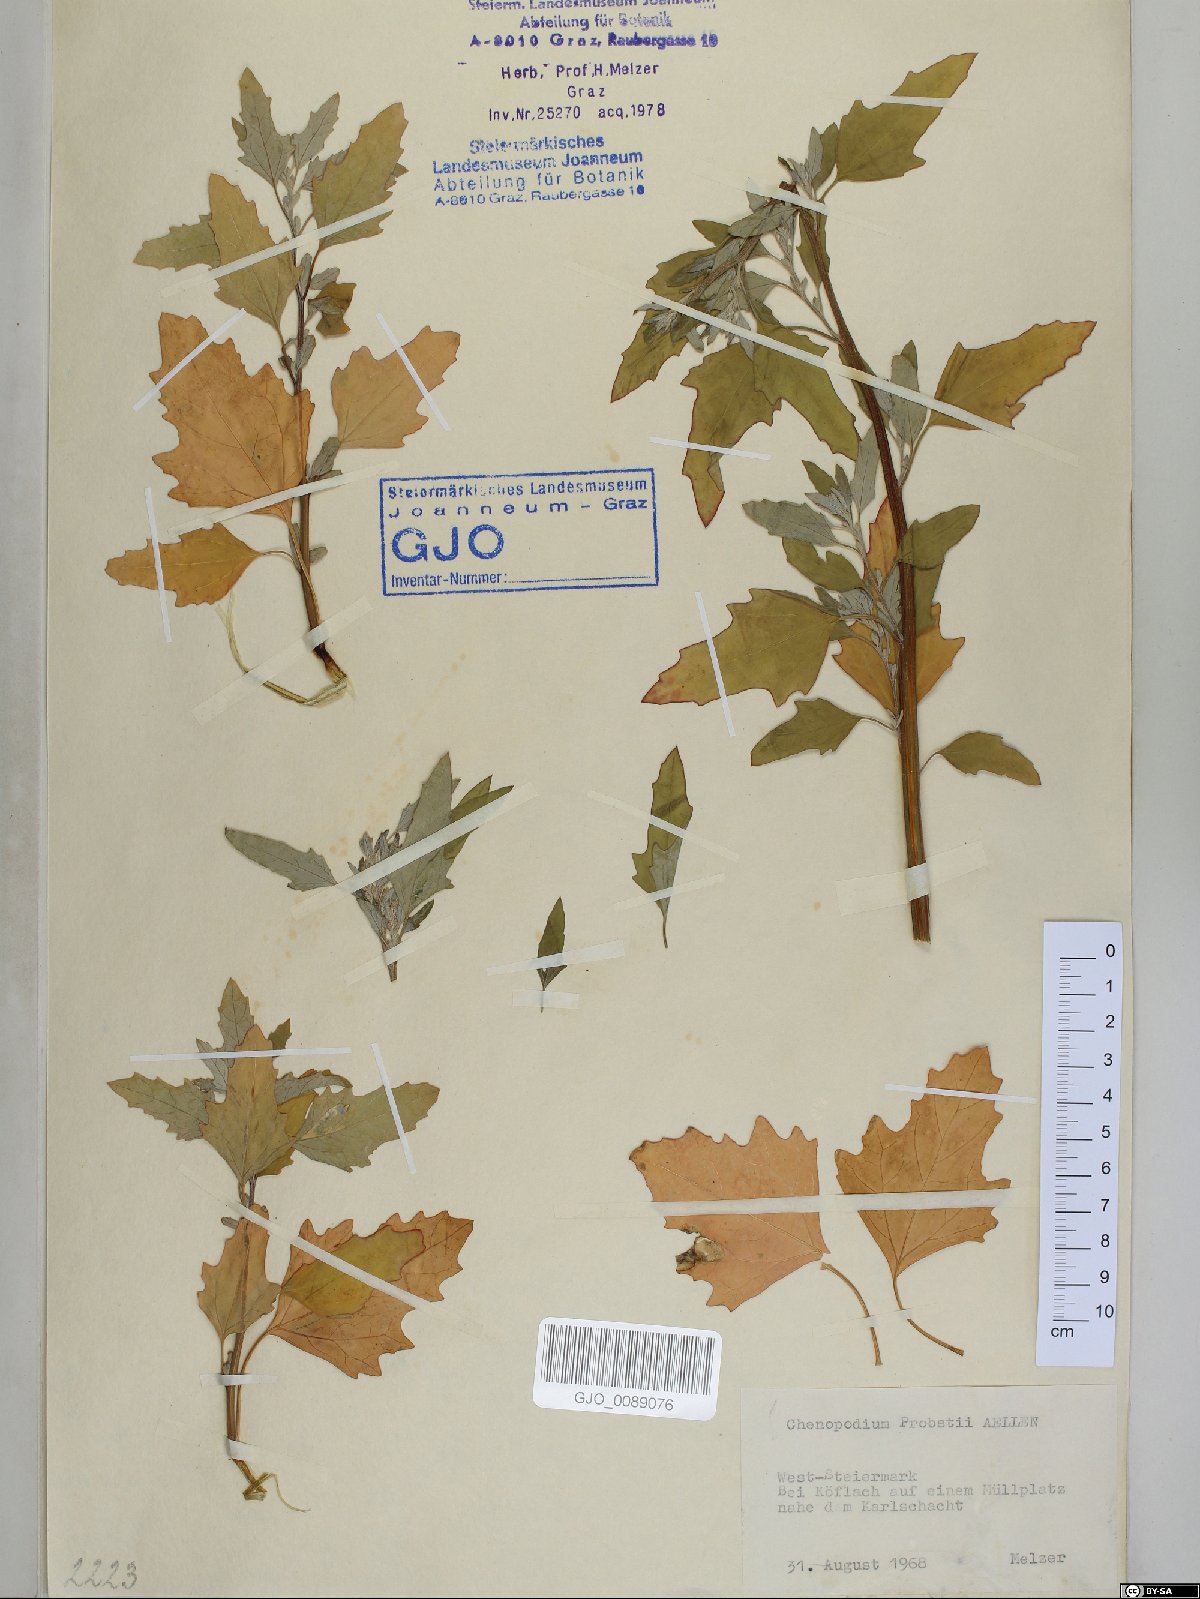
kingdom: Plantae
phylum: Tracheophyta
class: Magnoliopsida
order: Caryophyllales
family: Amaranthaceae
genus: Chenopodium
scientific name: Chenopodium probstii
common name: Probst's goosefoot
